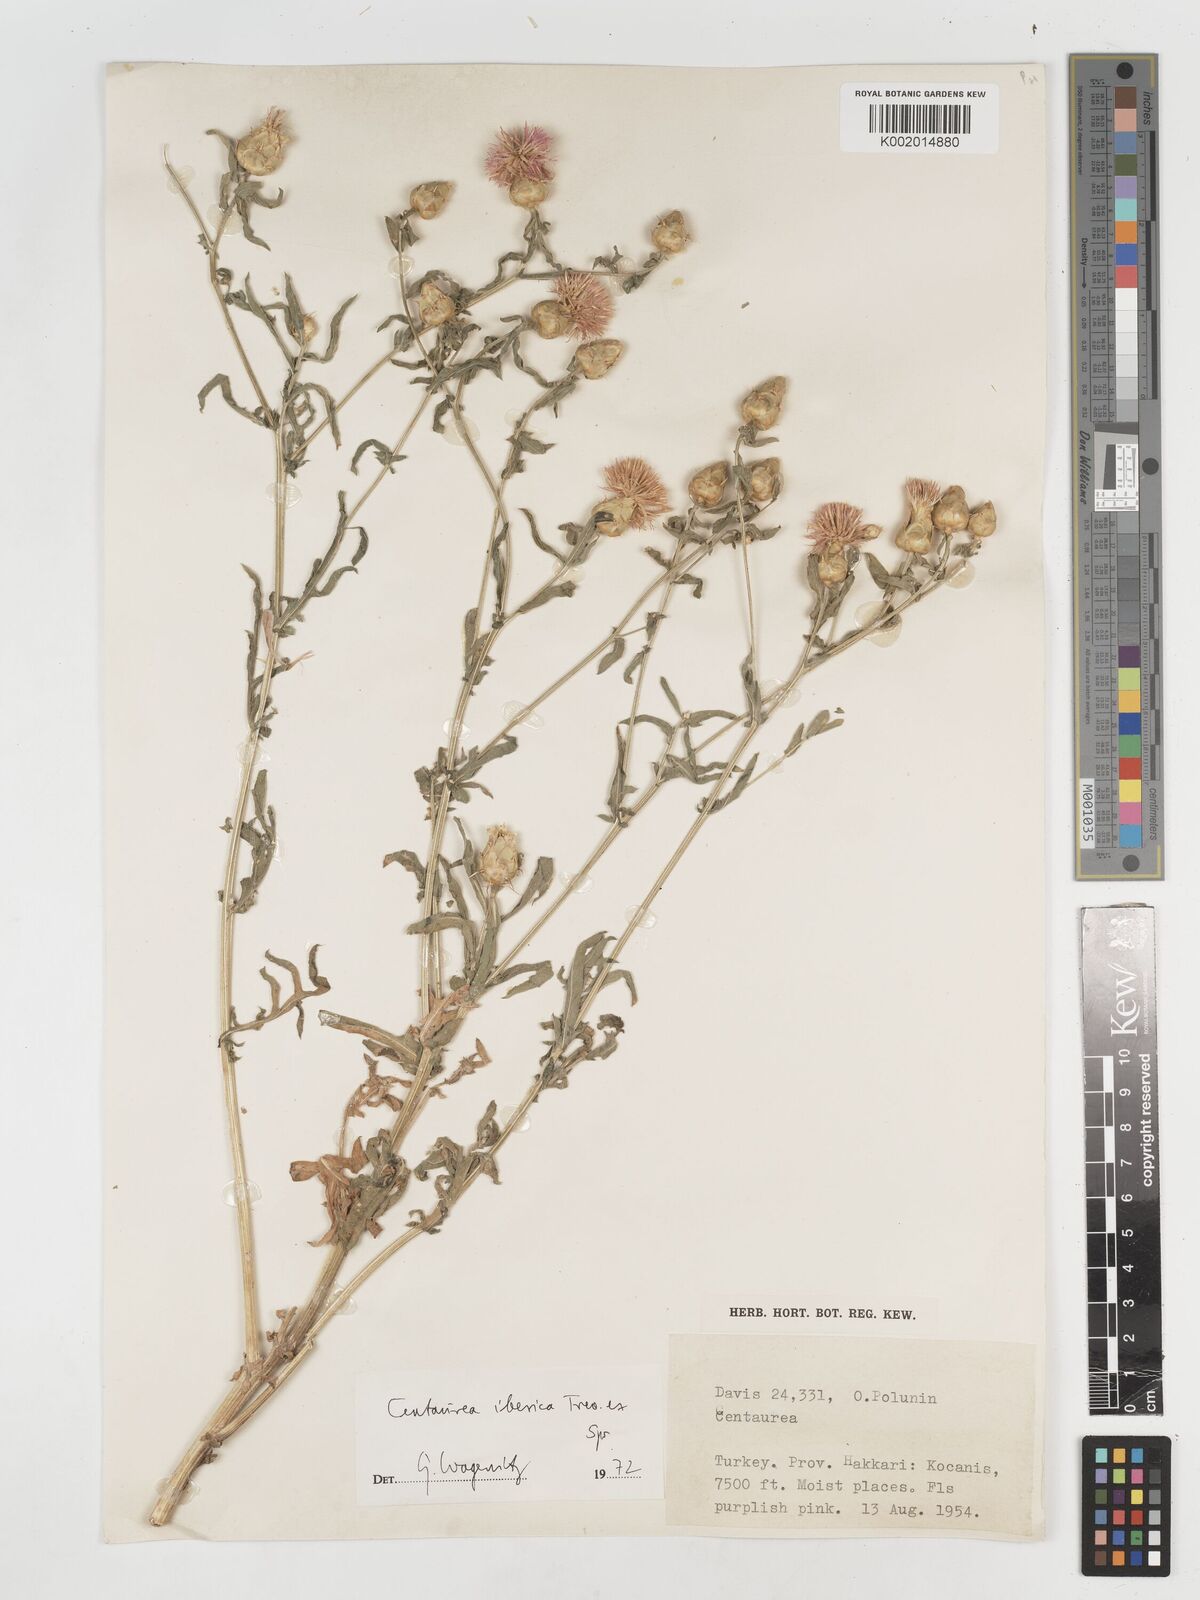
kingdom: Plantae
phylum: Tracheophyta
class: Magnoliopsida
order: Asterales
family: Asteraceae
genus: Centaurea
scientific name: Centaurea iberica
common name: Iberian knapweed
